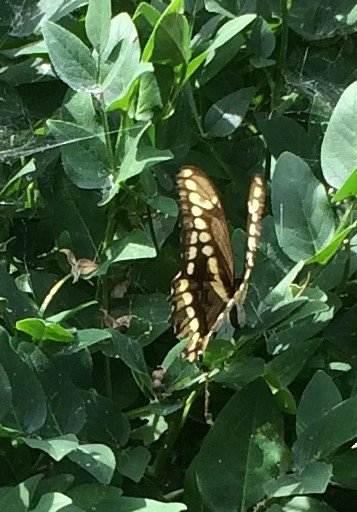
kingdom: Animalia
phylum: Arthropoda
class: Insecta
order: Lepidoptera
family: Papilionidae
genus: Papilio
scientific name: Papilio cresphontes
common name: Eastern Giant Swallowtail
